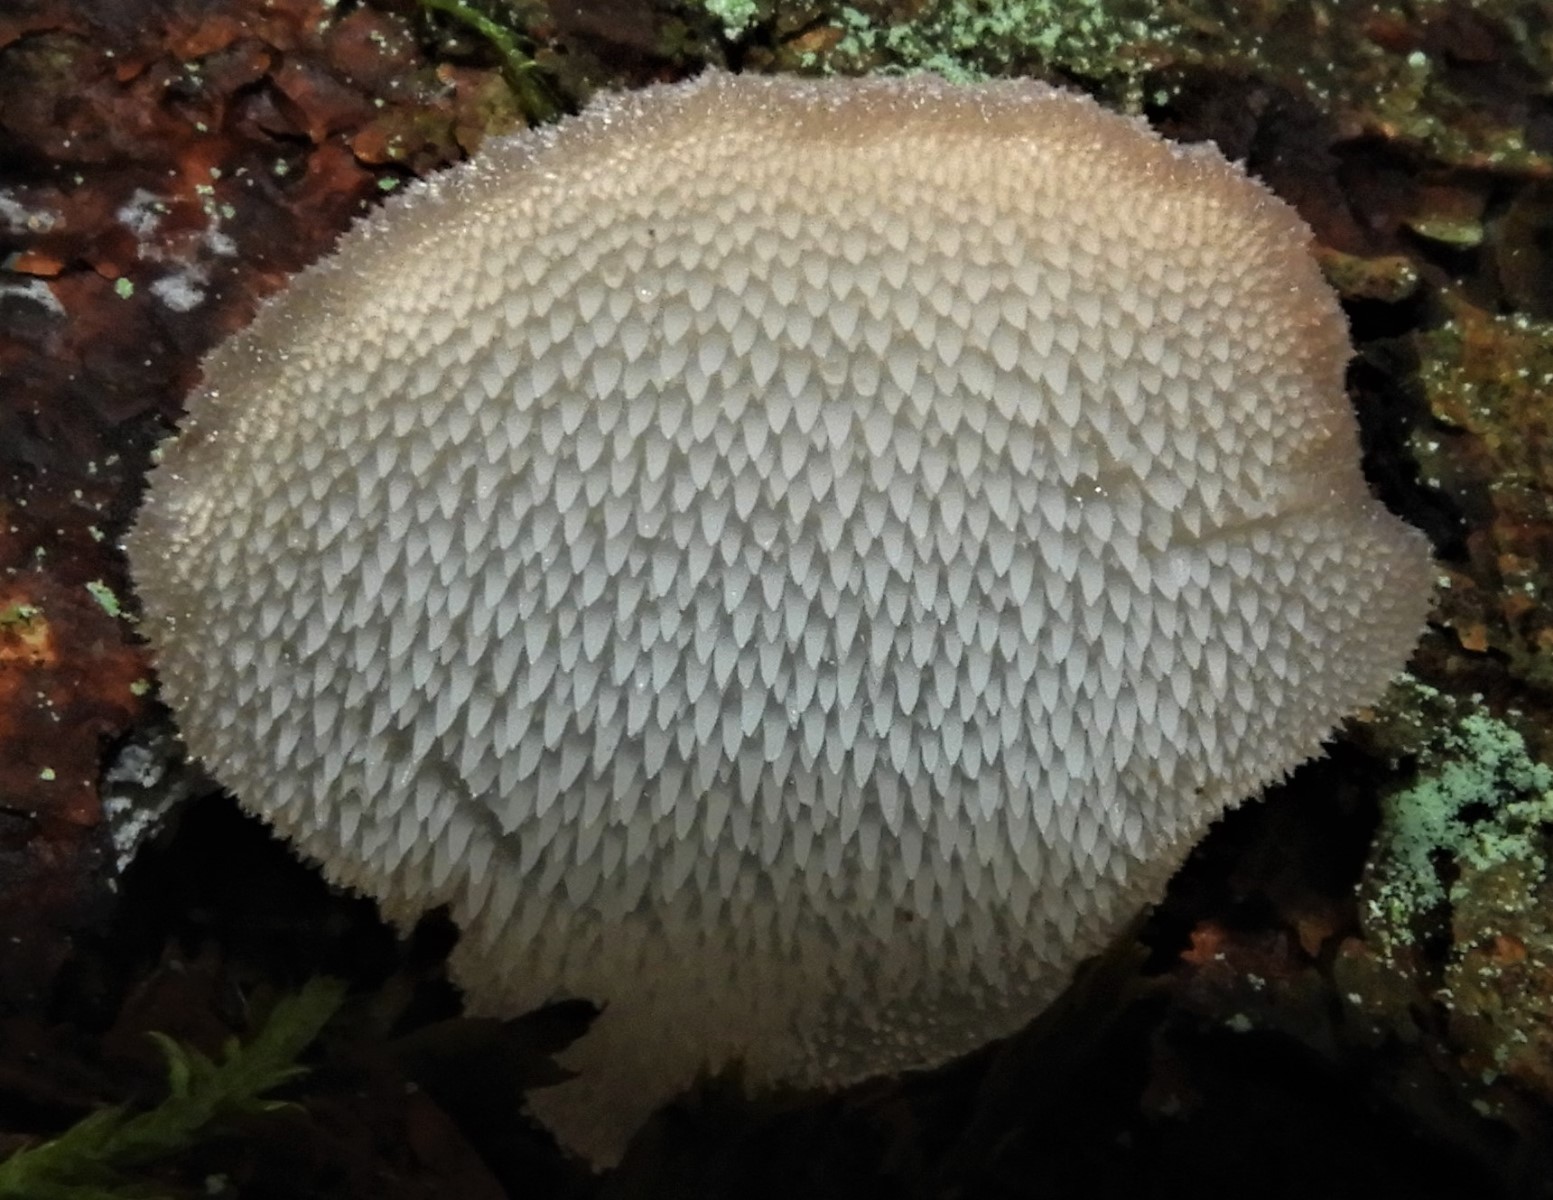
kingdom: Fungi
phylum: Basidiomycota
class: Agaricomycetes
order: Auriculariales
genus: Pseudohydnum
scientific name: Pseudohydnum gelatinosum
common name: bævretand
